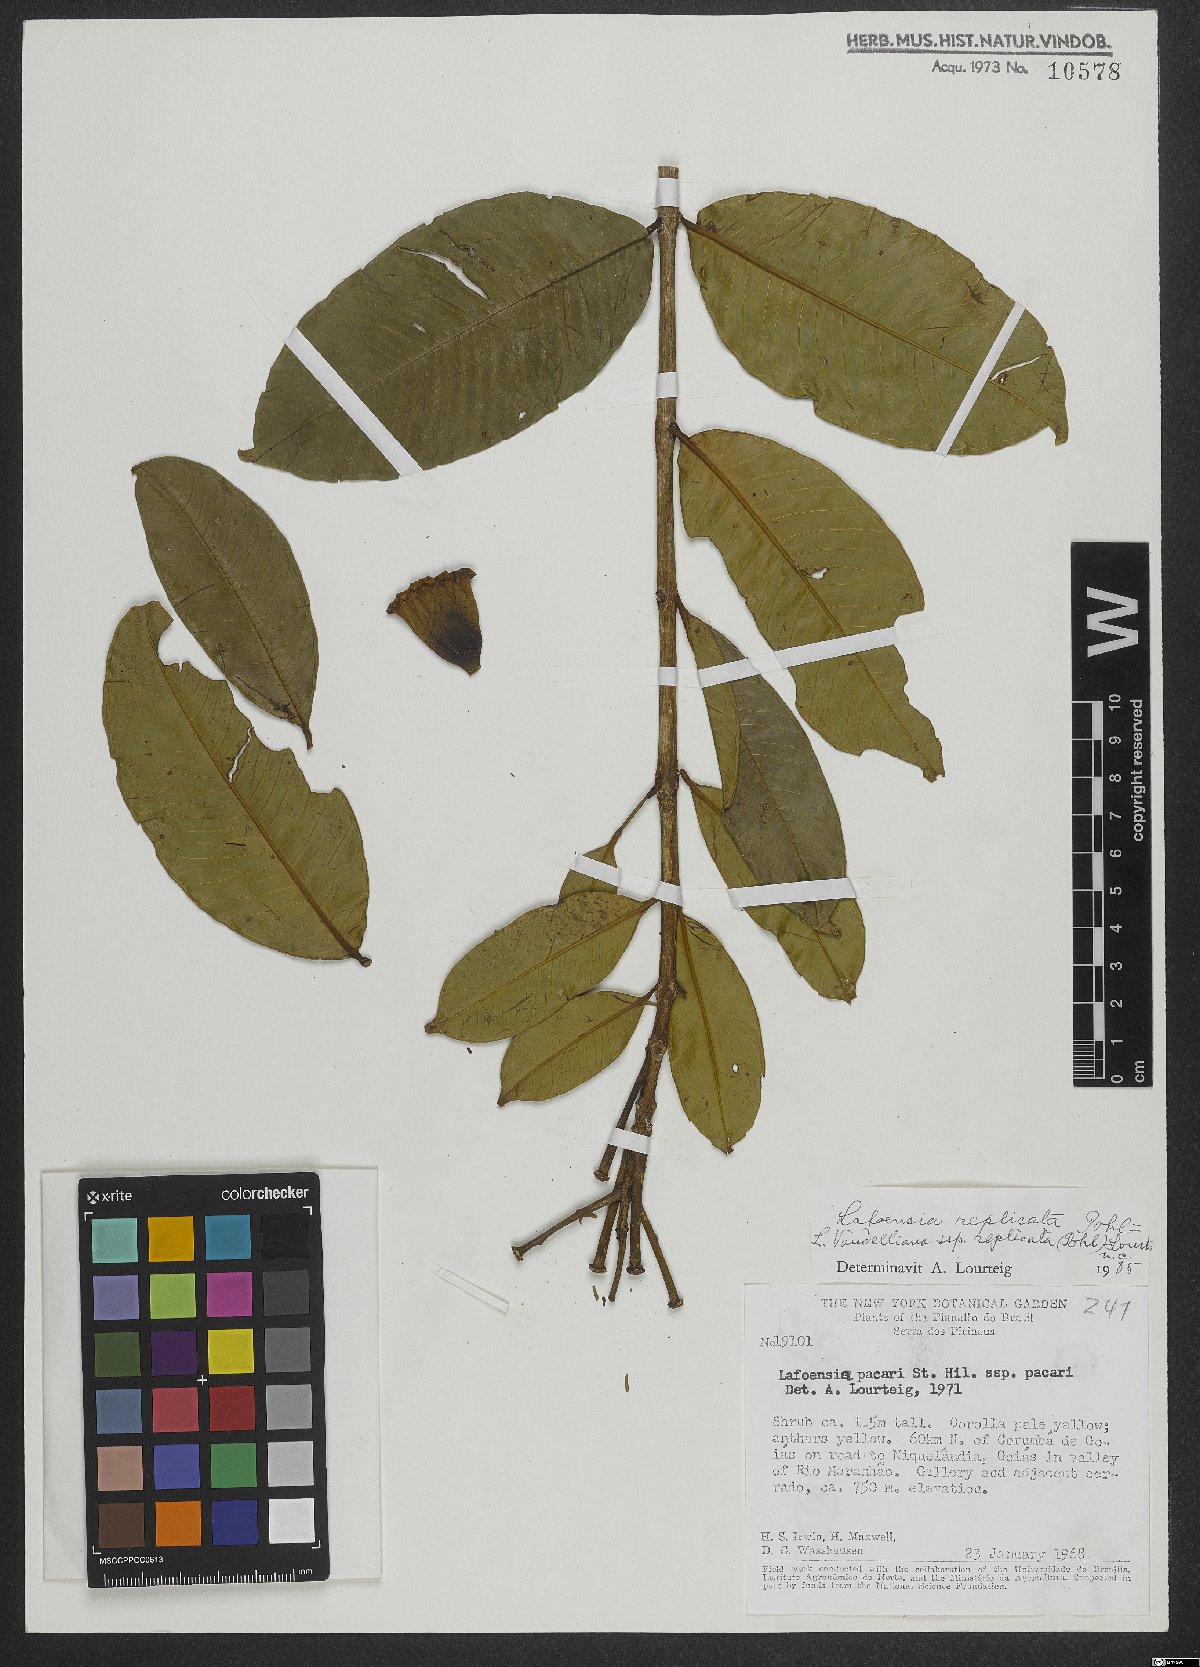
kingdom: Plantae
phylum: Tracheophyta
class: Magnoliopsida
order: Myrtales
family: Lythraceae
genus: Lafoensia
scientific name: Lafoensia vandelliana
